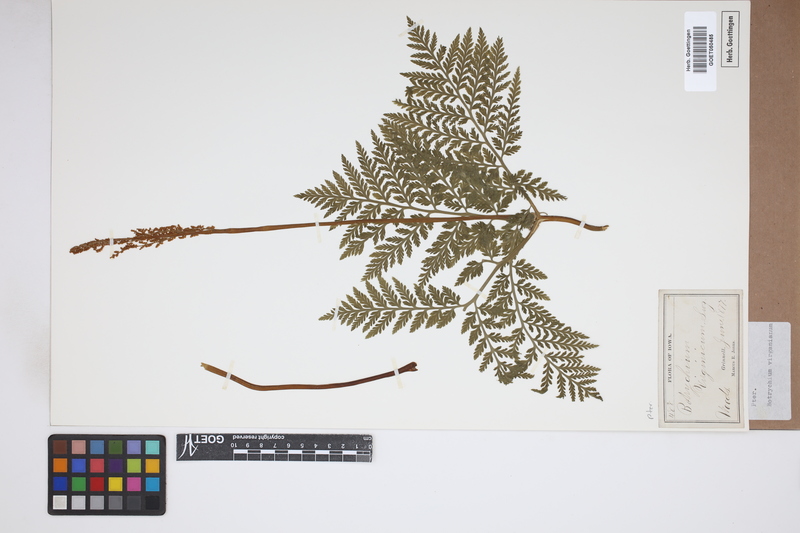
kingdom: Plantae
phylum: Tracheophyta
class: Polypodiopsida
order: Ophioglossales
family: Ophioglossaceae
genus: Botrychium
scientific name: Botrychium virginianum
